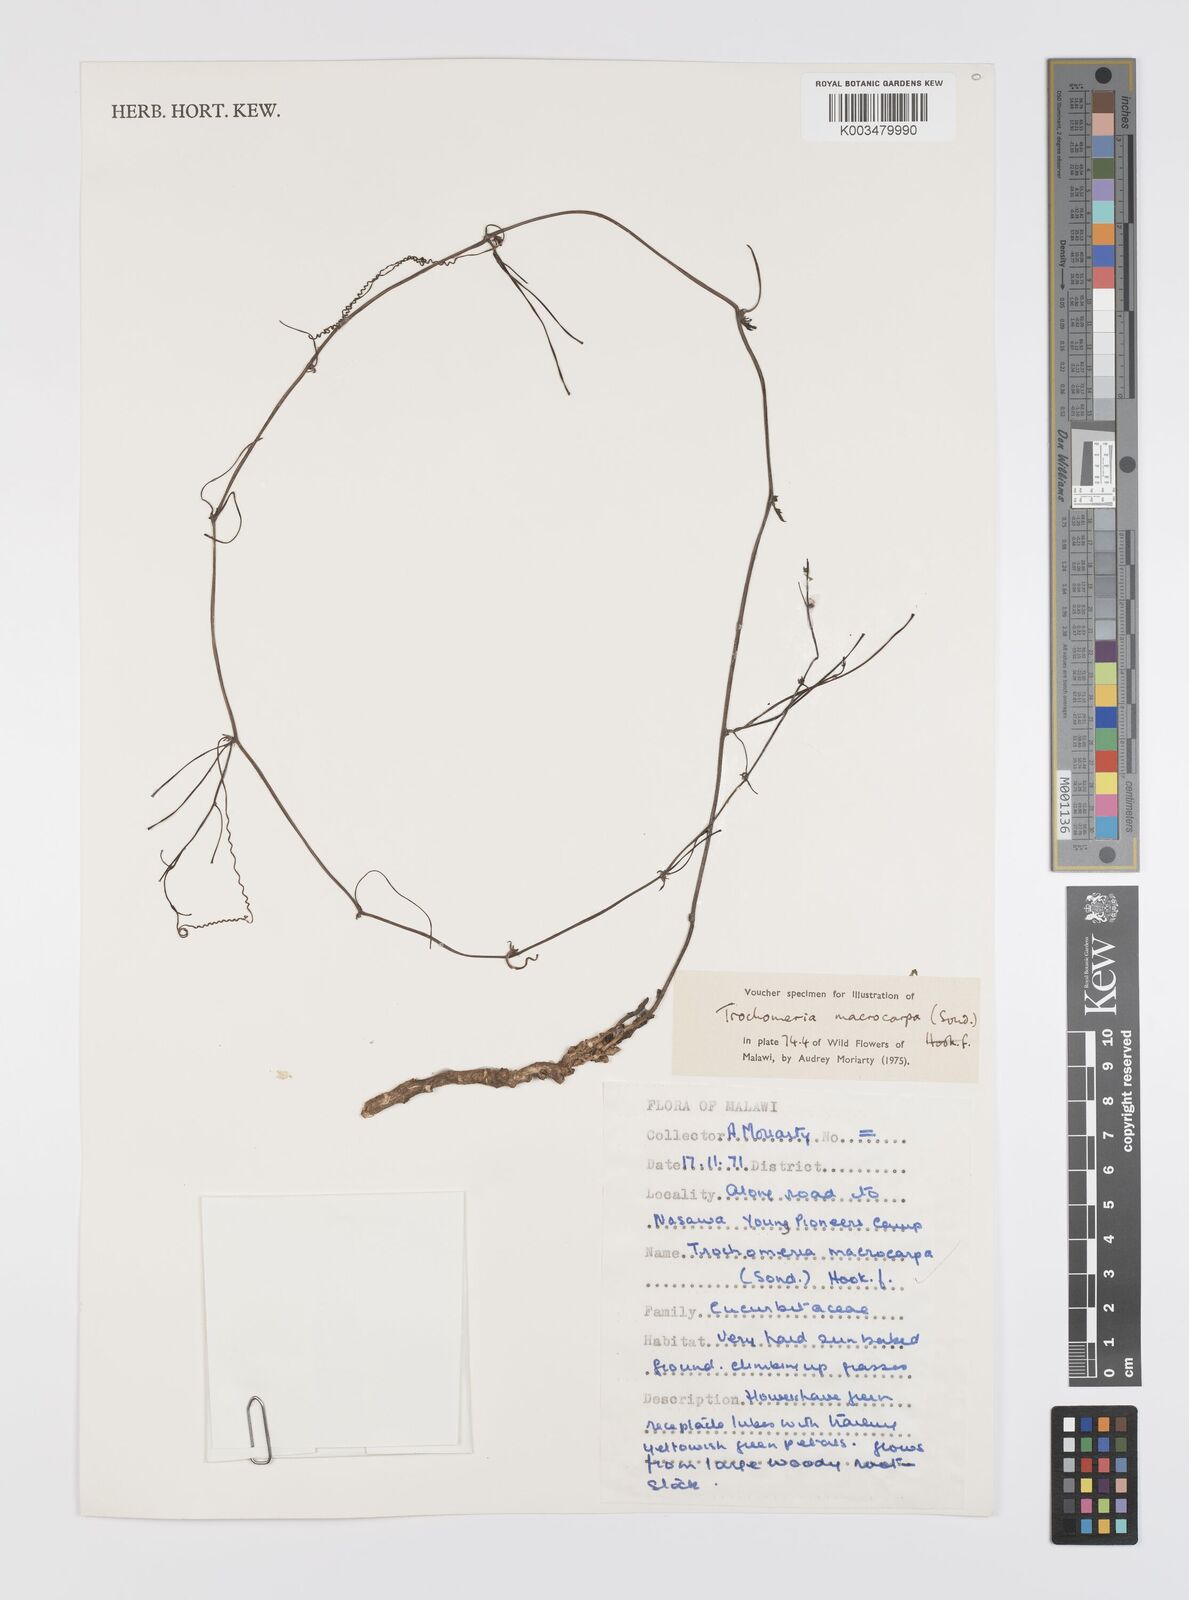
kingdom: Plantae
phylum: Tracheophyta
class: Magnoliopsida
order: Cucurbitales
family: Cucurbitaceae
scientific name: Cucurbitaceae
